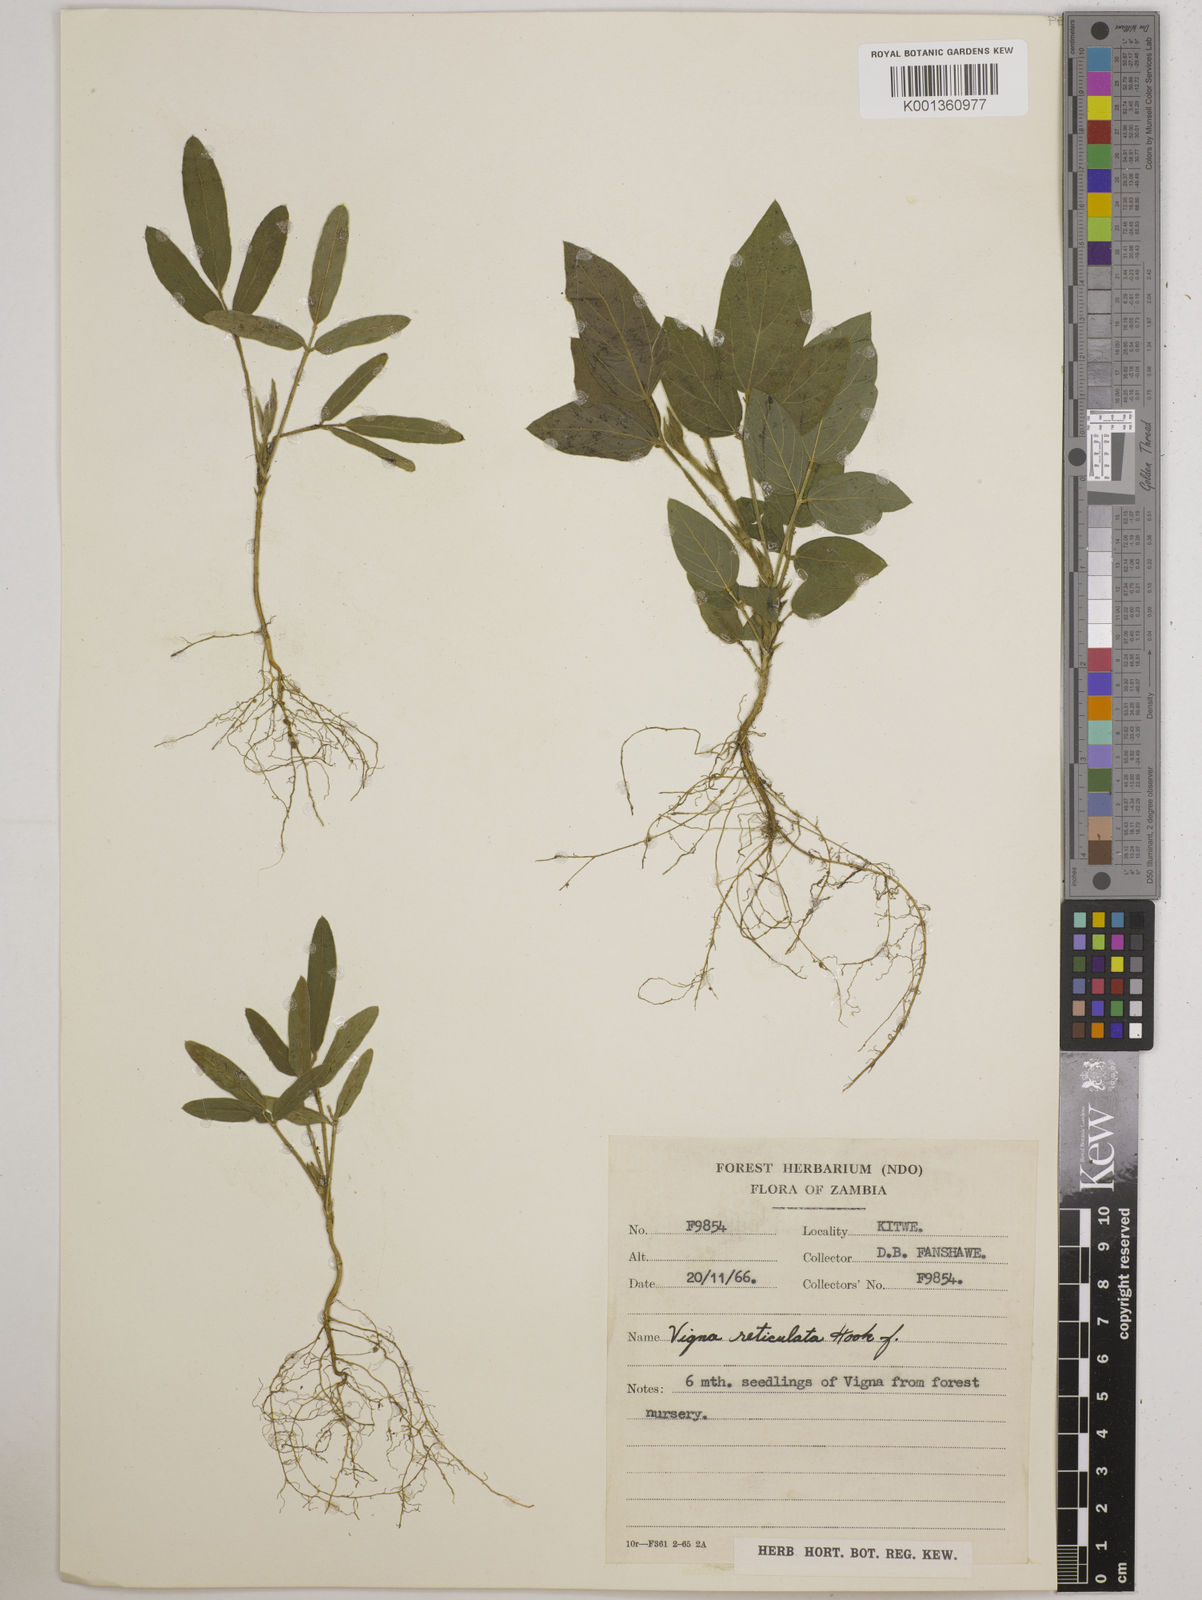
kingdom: Plantae
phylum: Tracheophyta
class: Magnoliopsida
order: Fabales
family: Fabaceae
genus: Vigna
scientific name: Vigna reticulata
